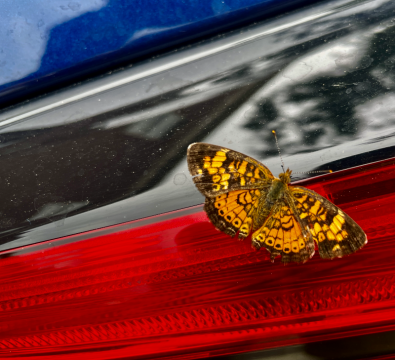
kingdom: Animalia
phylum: Arthropoda
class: Insecta
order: Lepidoptera
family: Nymphalidae
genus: Phyciodes
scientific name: Phyciodes
